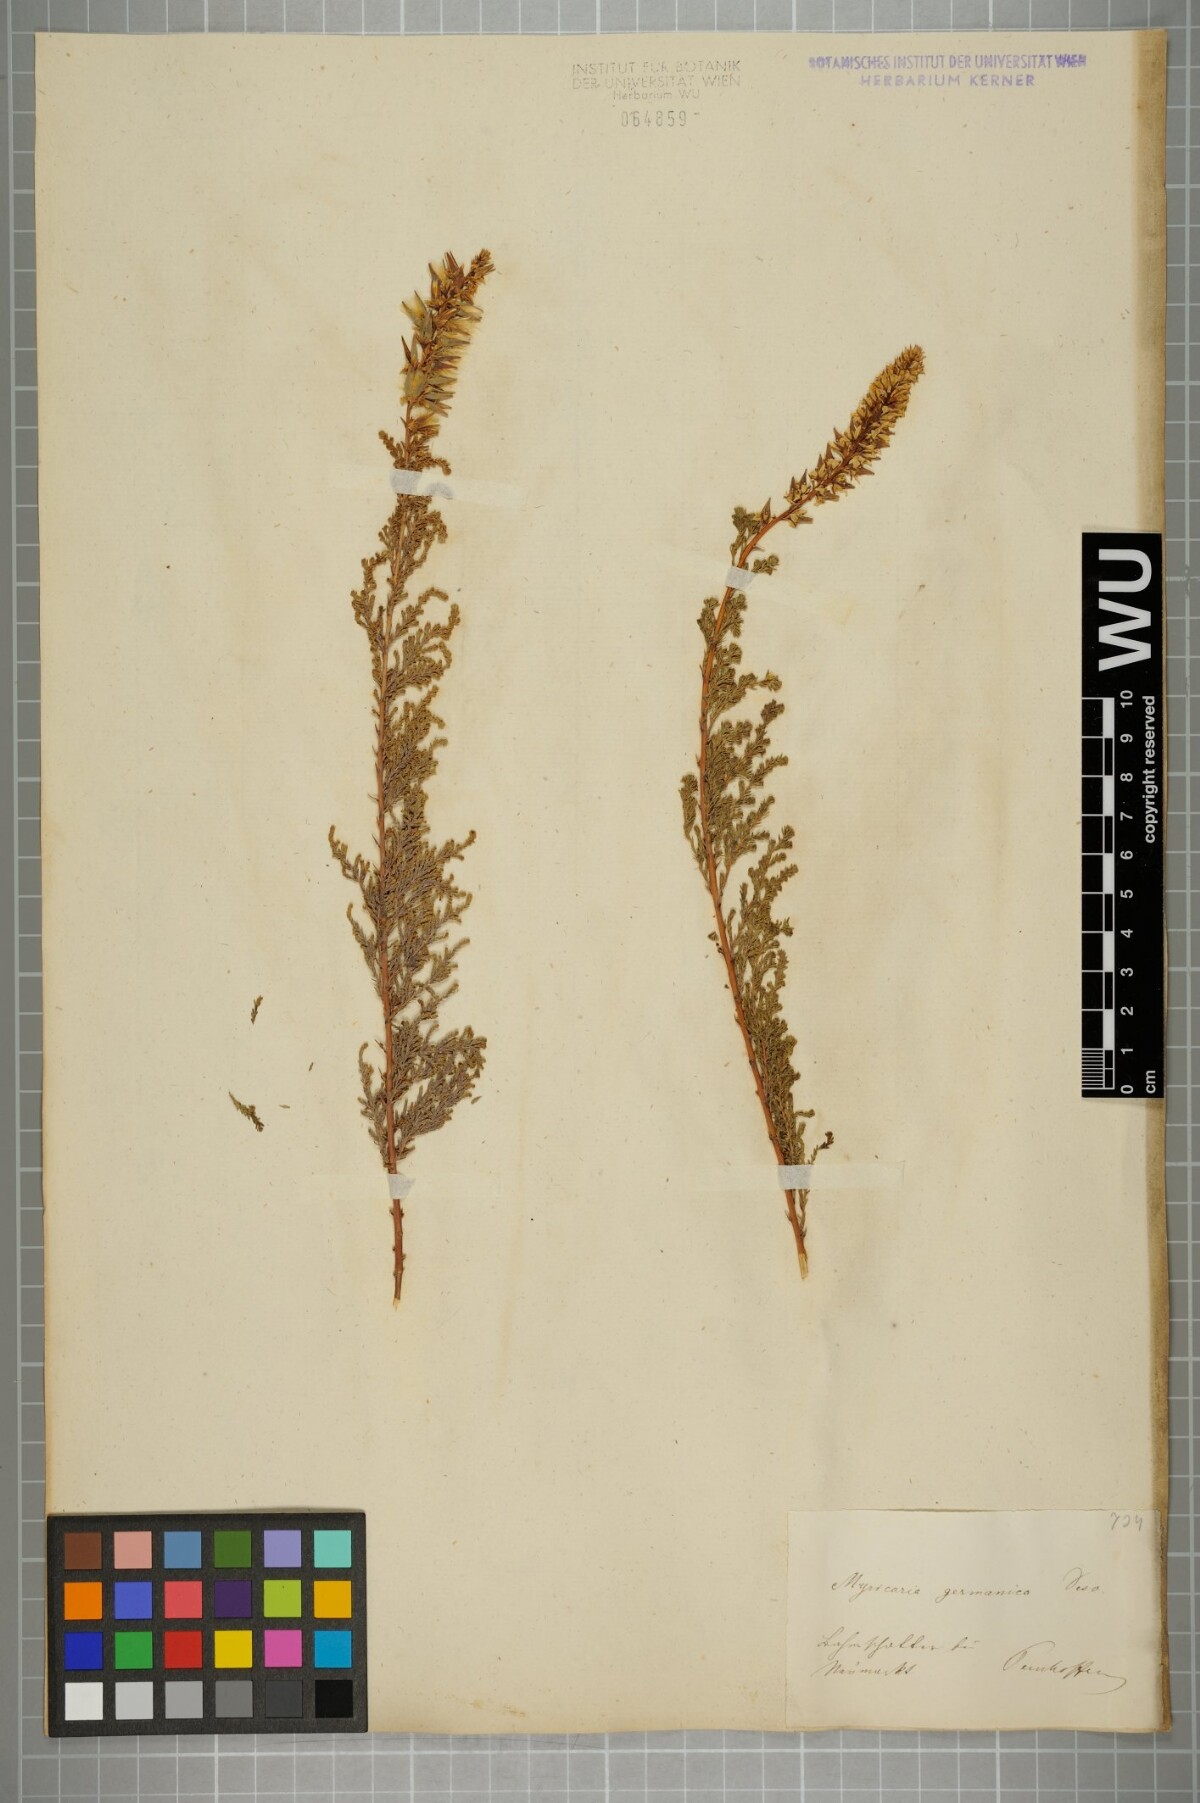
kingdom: Plantae
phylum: Tracheophyta
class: Magnoliopsida
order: Caryophyllales
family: Tamaricaceae
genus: Myricaria
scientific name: Myricaria germanica
